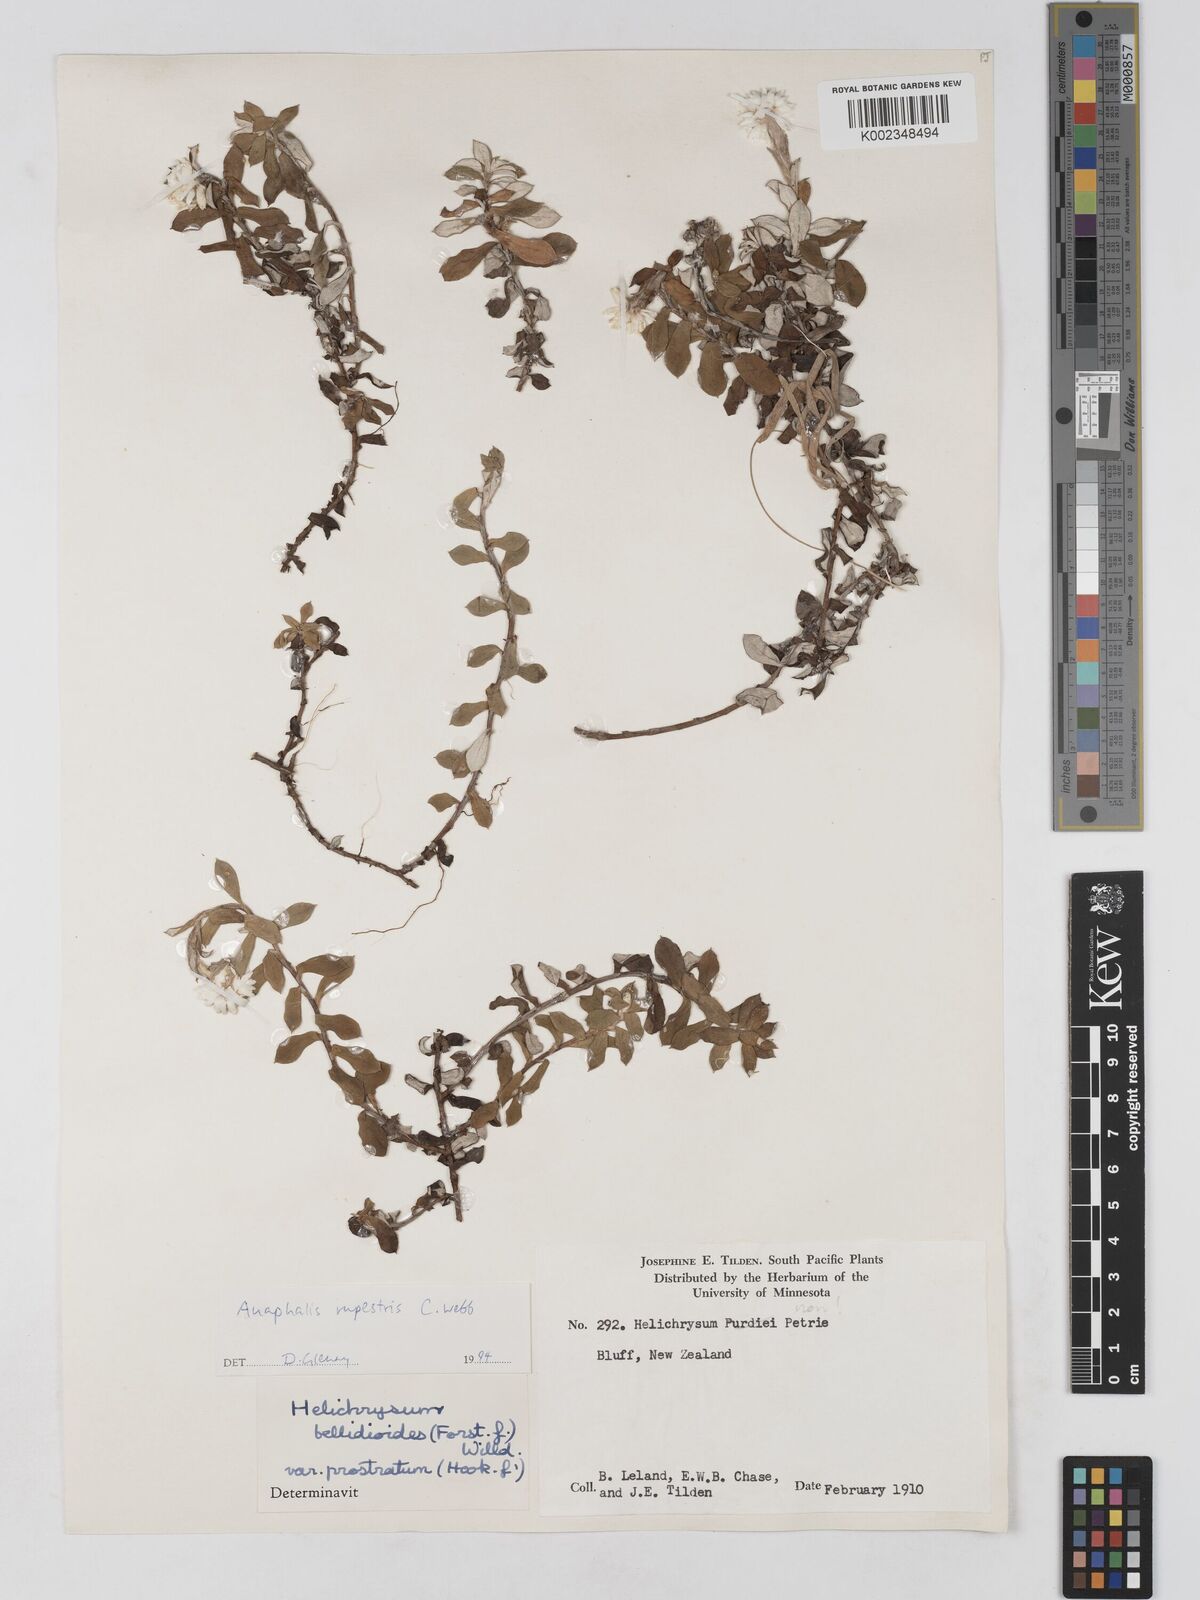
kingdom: Plantae
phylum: Tracheophyta
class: Magnoliopsida
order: Asterales
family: Asteraceae
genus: Anaphaloides
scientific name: Anaphaloides
